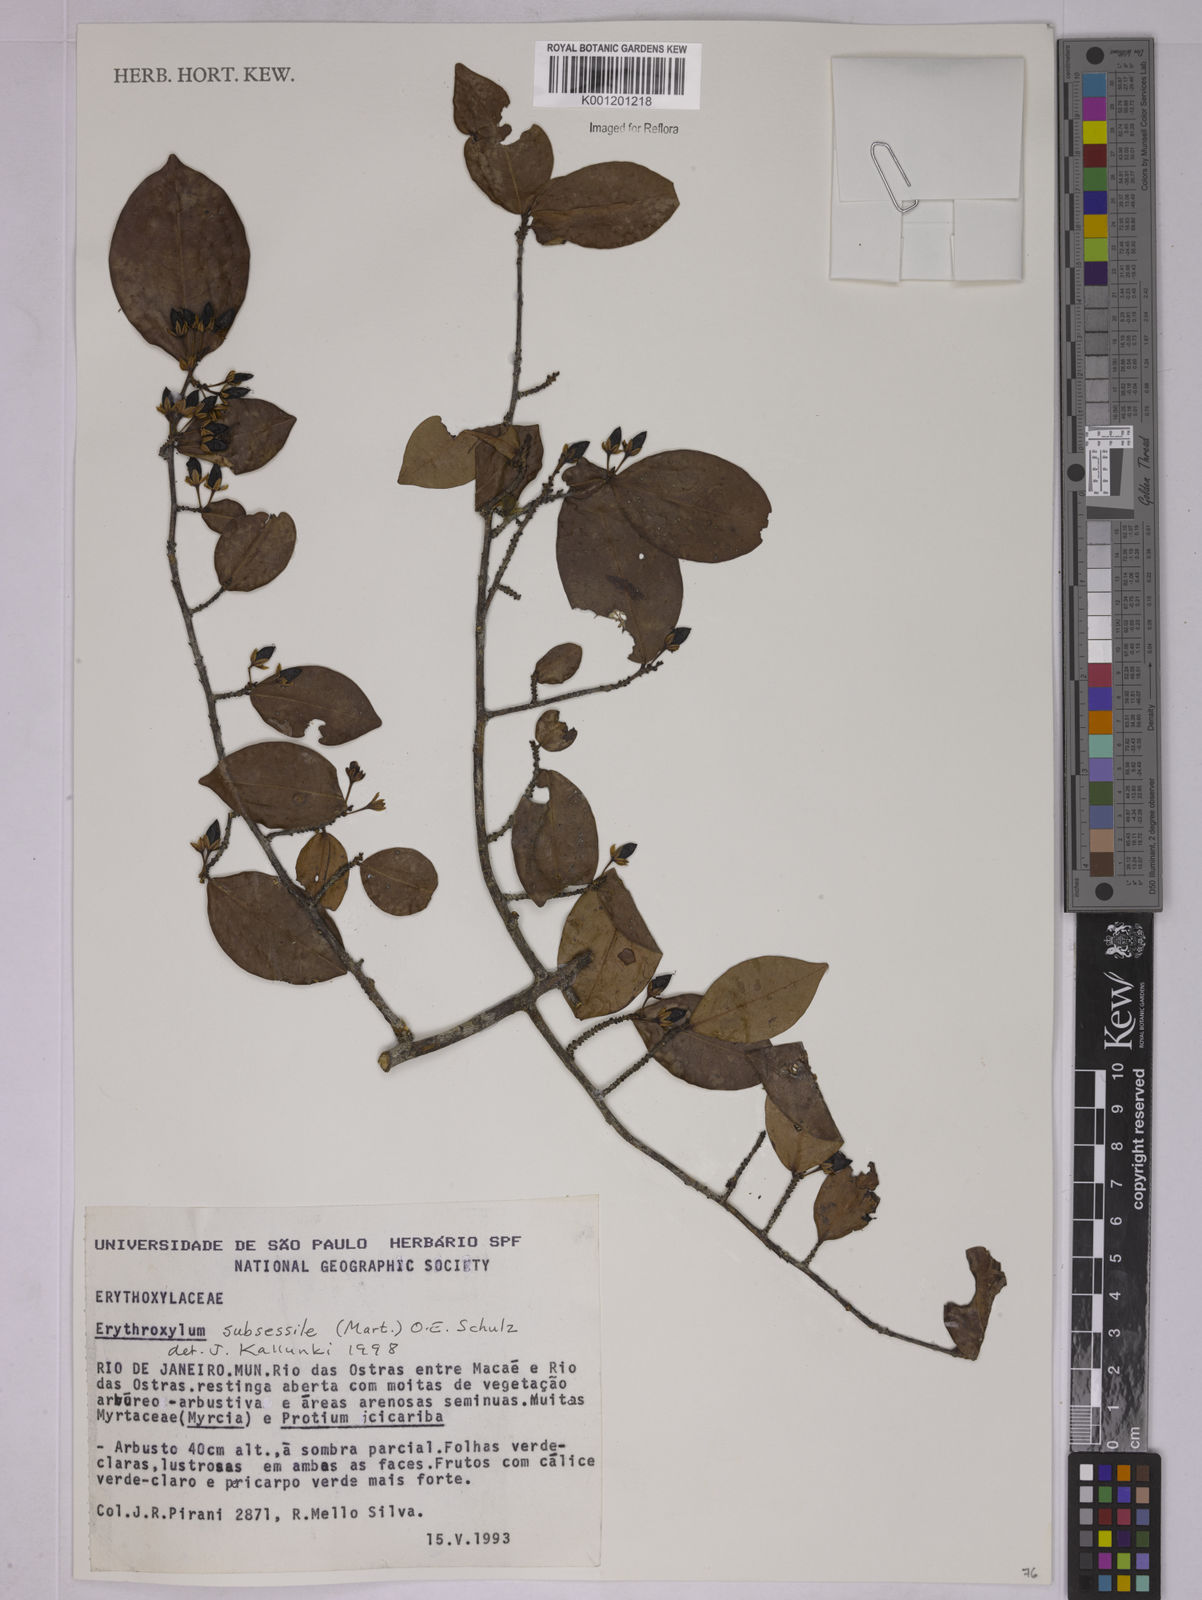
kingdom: Plantae
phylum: Tracheophyta
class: Magnoliopsida
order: Malpighiales
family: Erythroxylaceae
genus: Erythroxylum
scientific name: Erythroxylum macrocalyx
